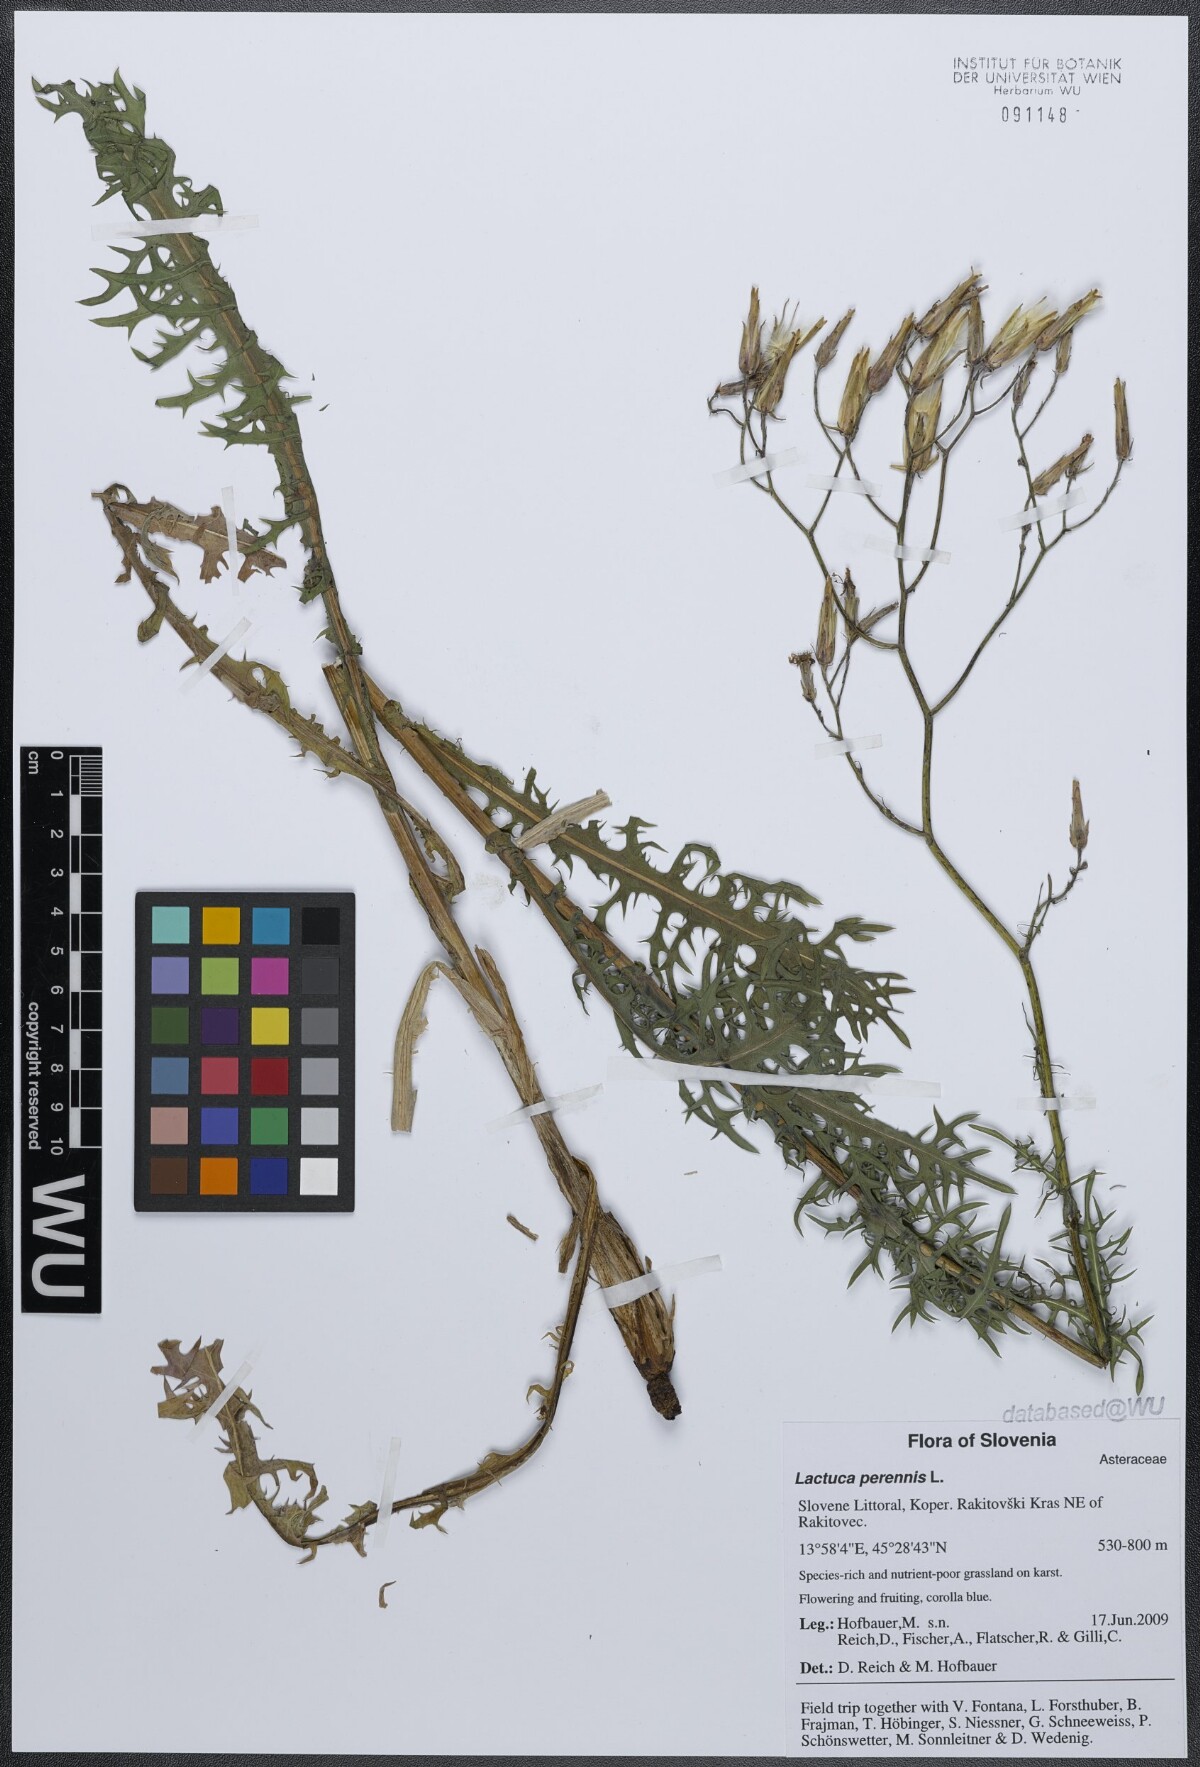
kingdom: Plantae
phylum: Tracheophyta
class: Magnoliopsida
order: Asterales
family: Asteraceae
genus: Lactuca
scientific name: Lactuca perennis
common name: Mountain lettuce
